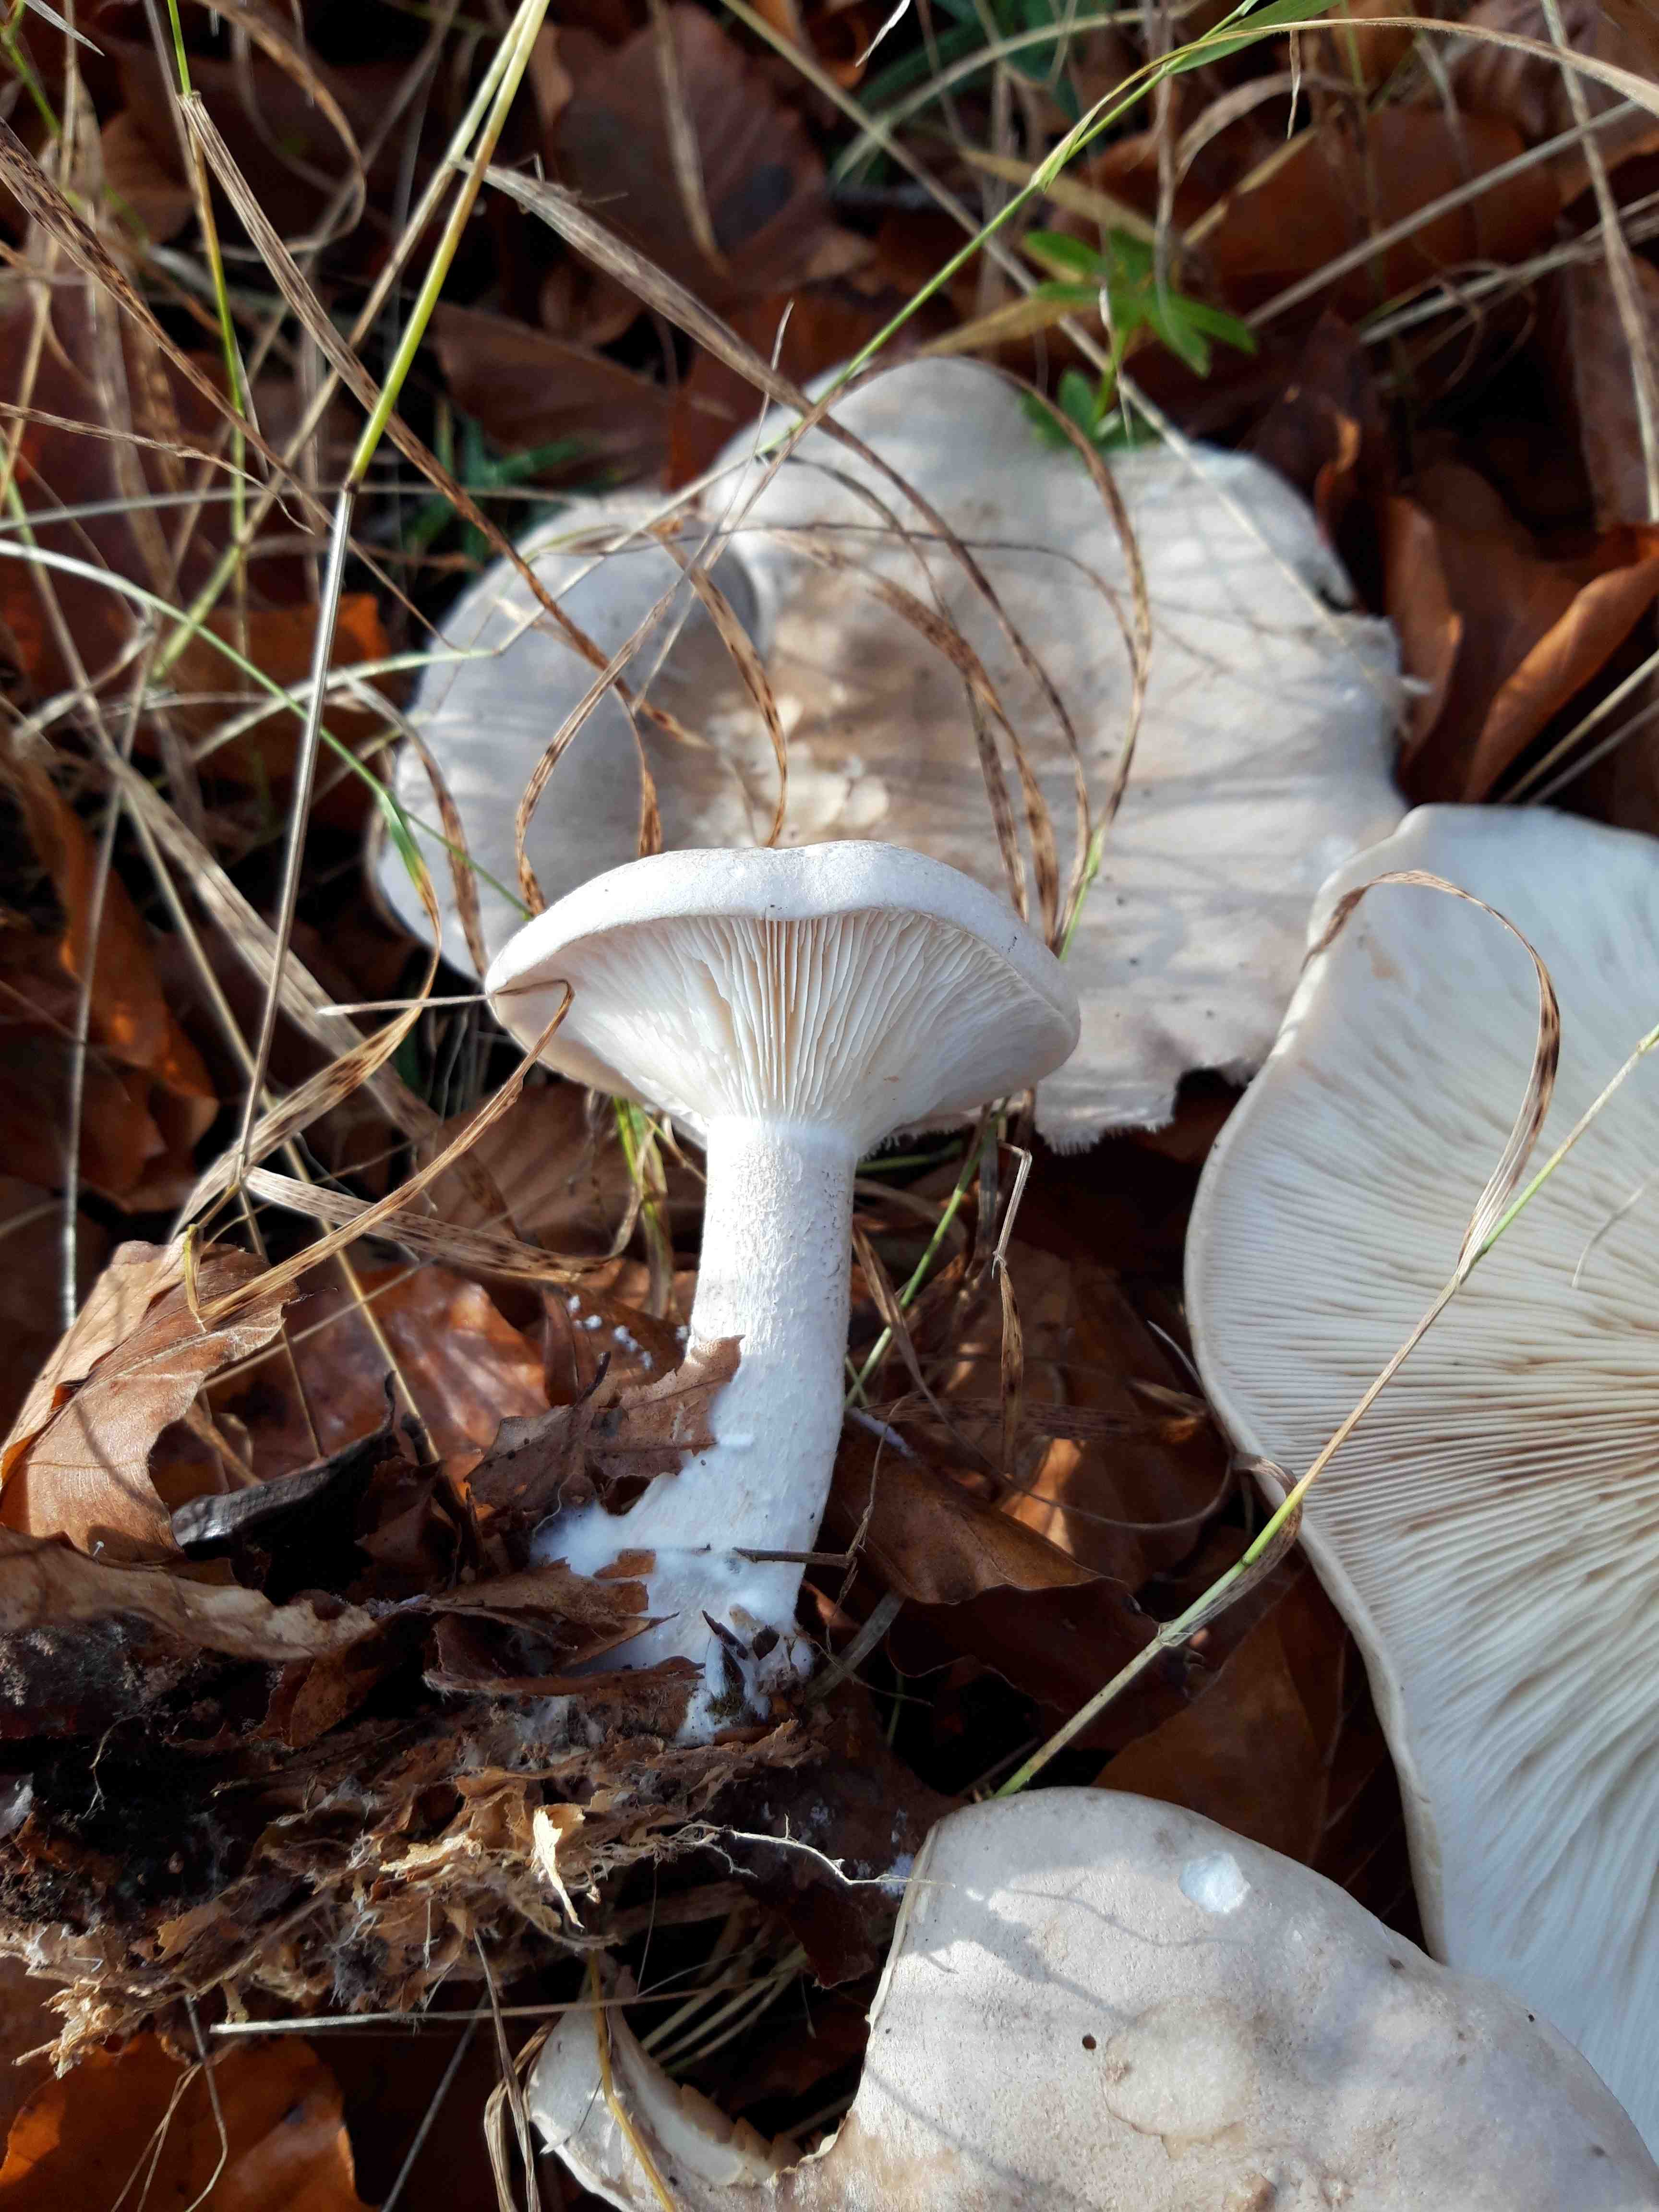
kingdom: Fungi
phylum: Basidiomycota
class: Agaricomycetes
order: Agaricales
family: Tricholomataceae
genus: Clitocybe
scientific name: Clitocybe nebularis
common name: tåge-tragthat
